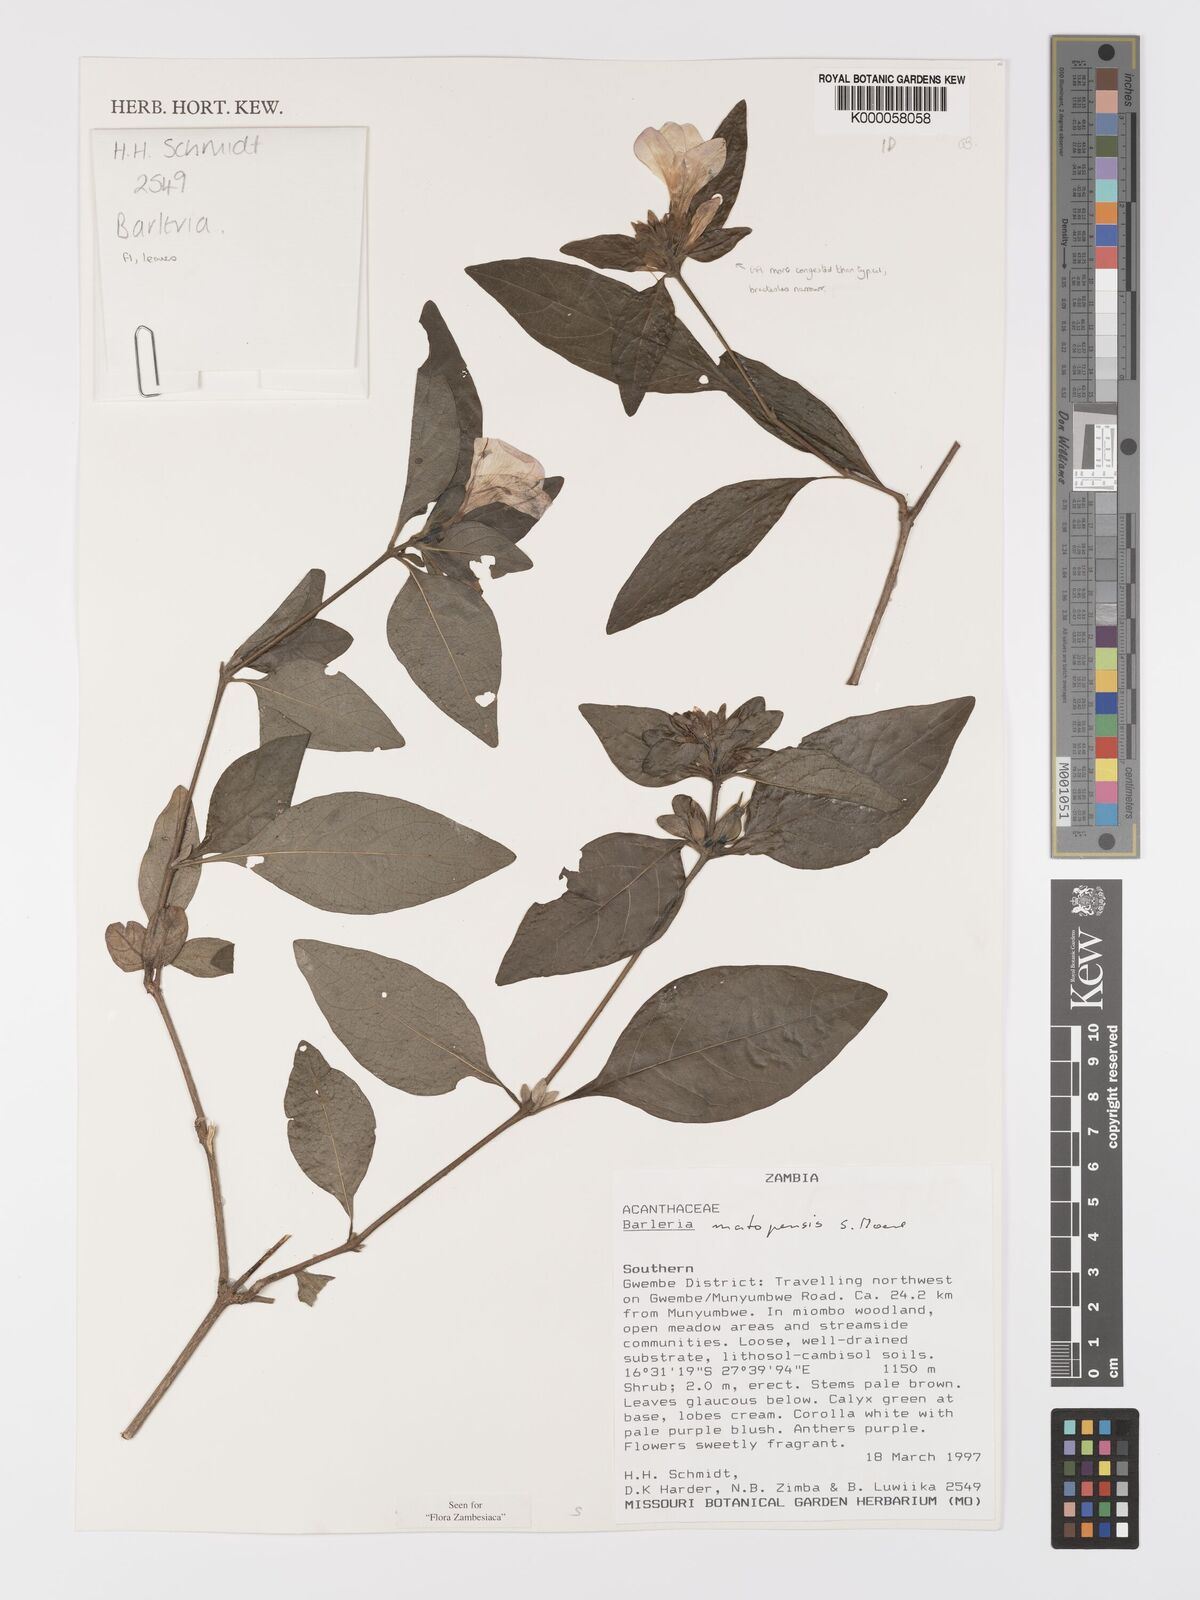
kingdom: Plantae
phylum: Tracheophyta
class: Magnoliopsida
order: Lamiales
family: Acanthaceae
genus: Barleria
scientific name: Barleria matopensis
